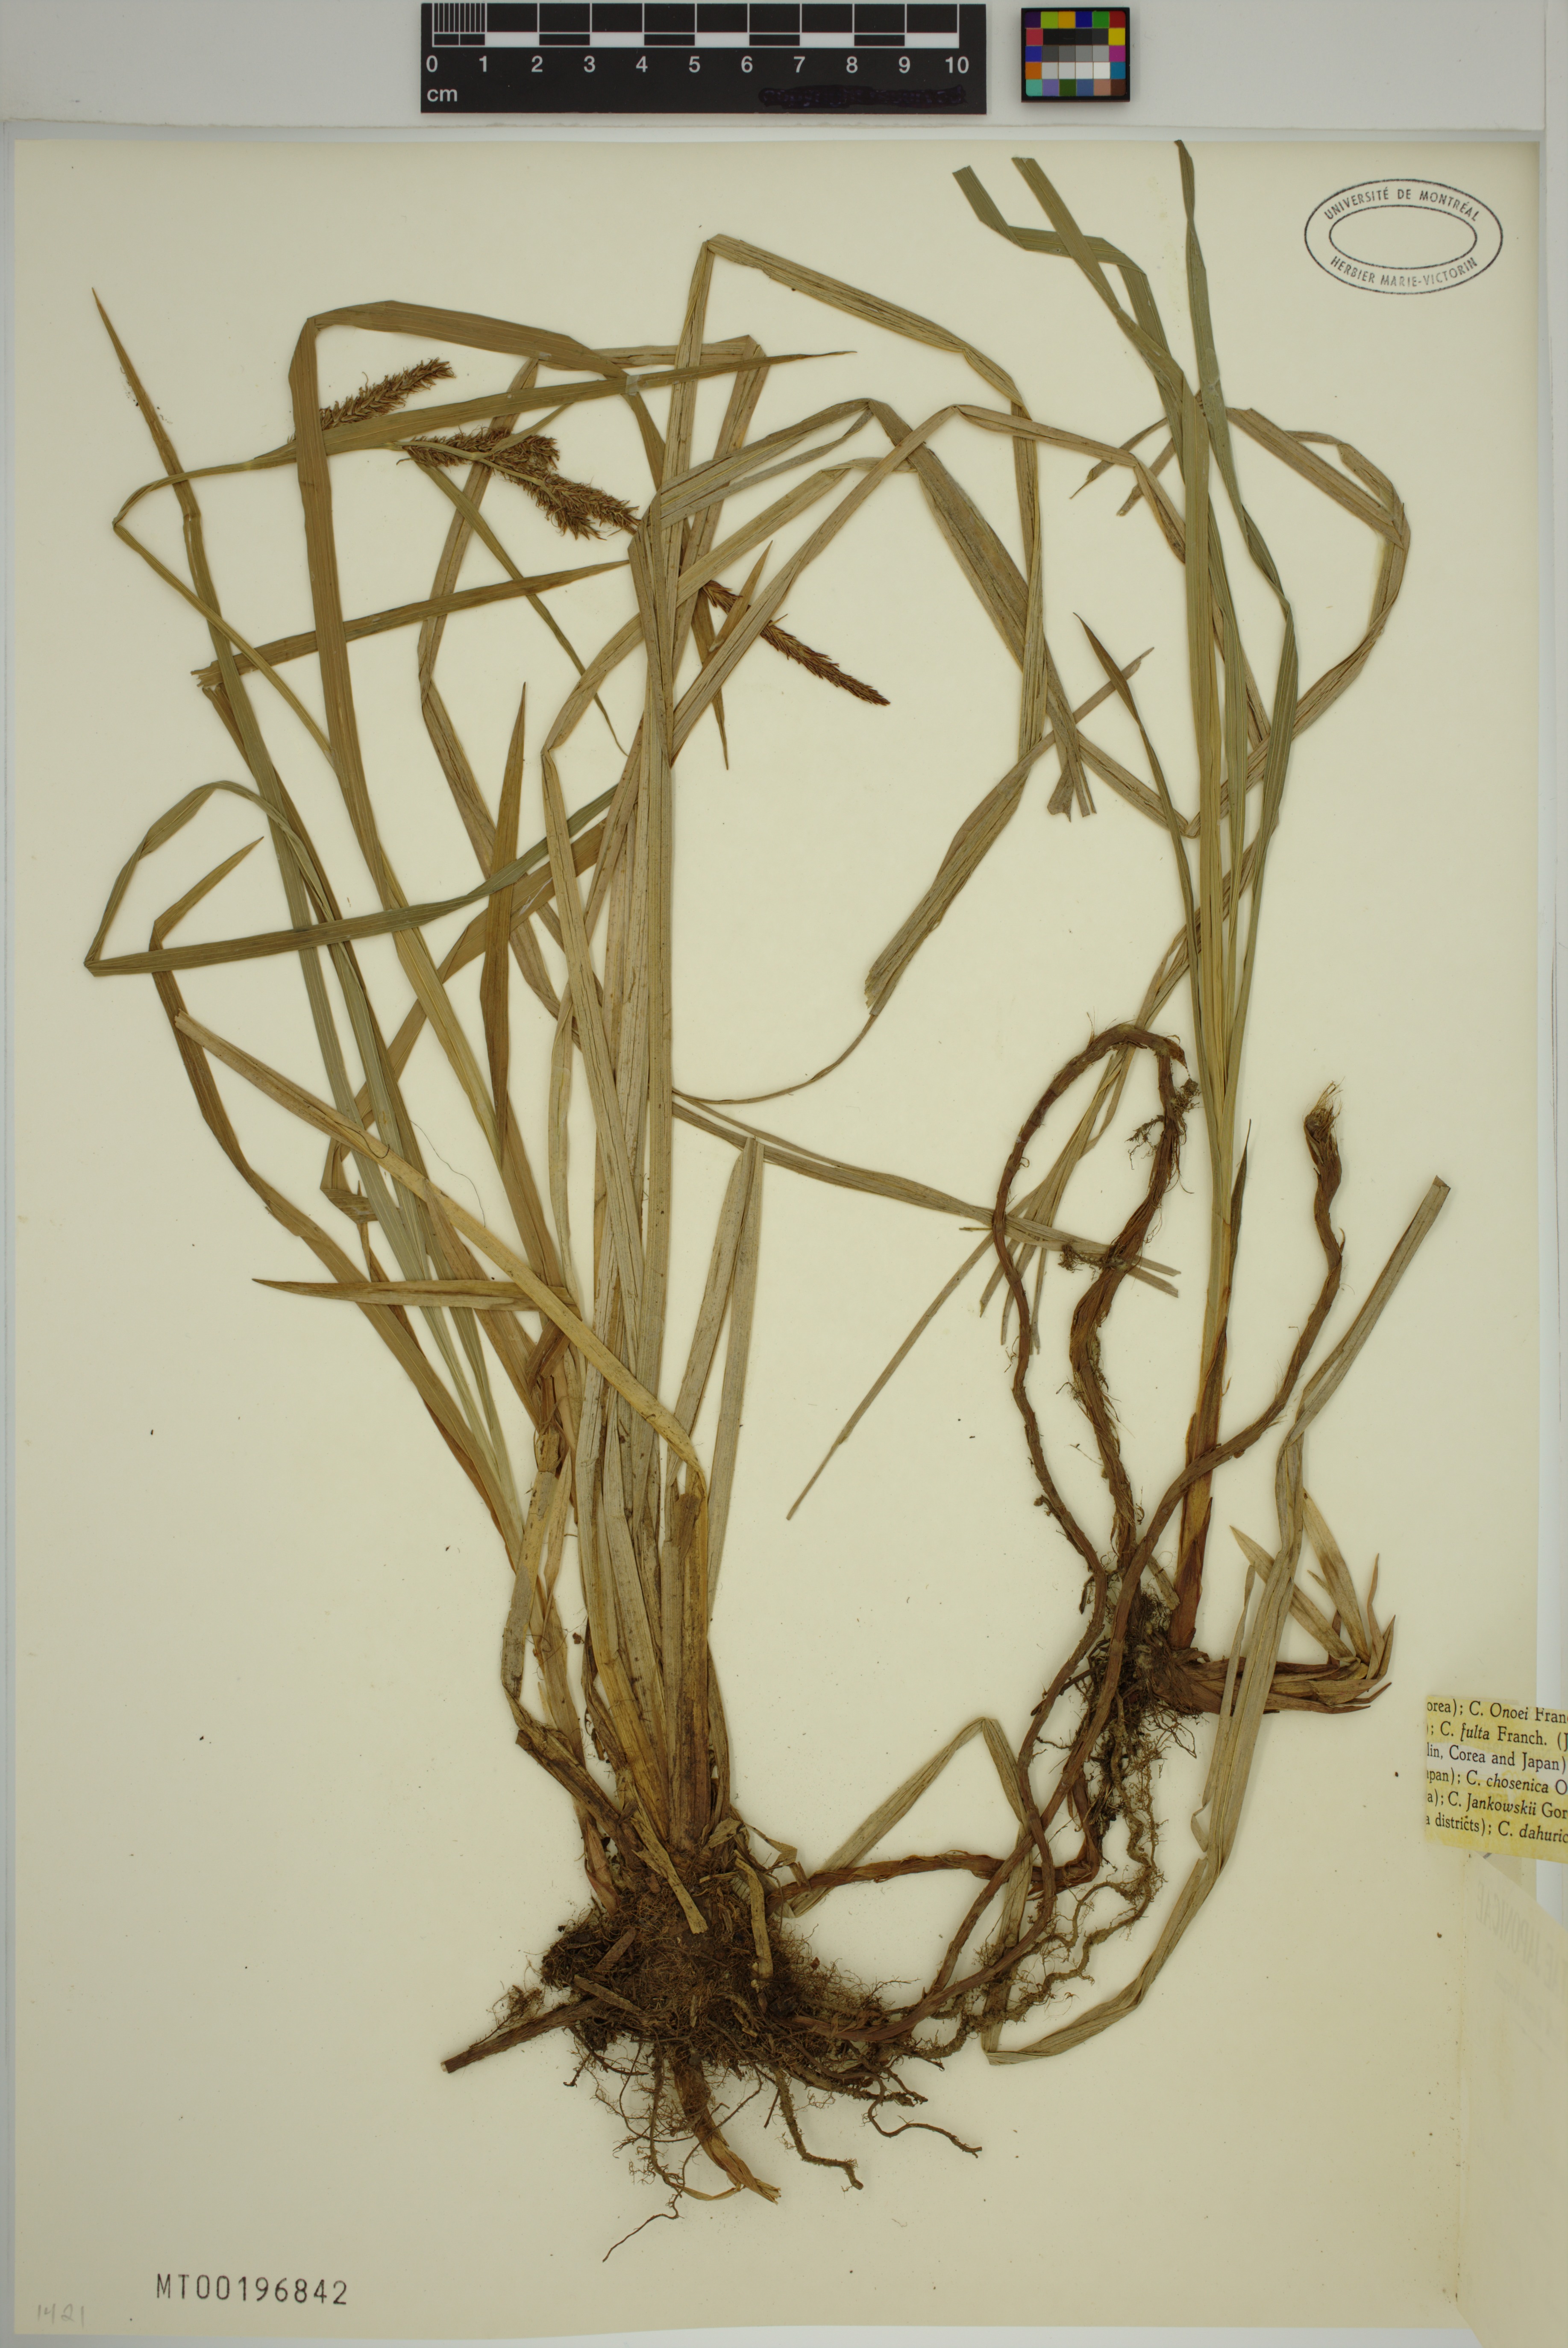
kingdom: Plantae
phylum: Tracheophyta
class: Liliopsida
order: Poales
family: Cyperaceae
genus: Carex
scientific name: Carex petelotii
